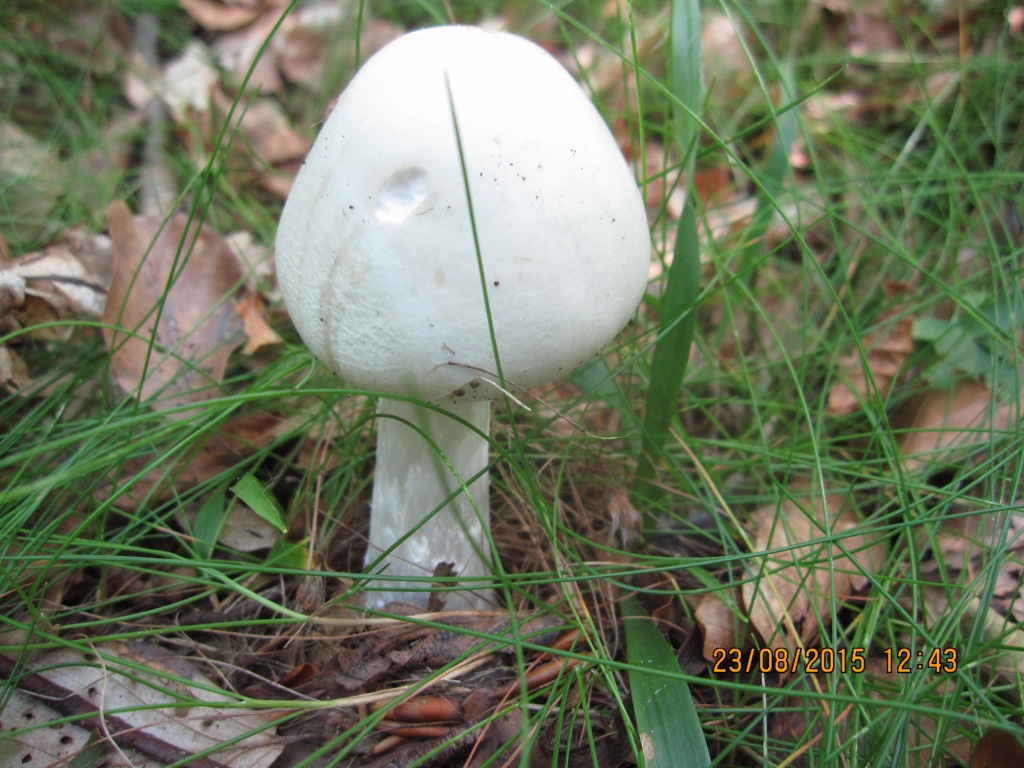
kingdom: Fungi
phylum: Basidiomycota
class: Agaricomycetes
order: Agaricales
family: Amanitaceae
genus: Amanita
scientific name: Amanita virosa
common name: snehvid fluesvamp
